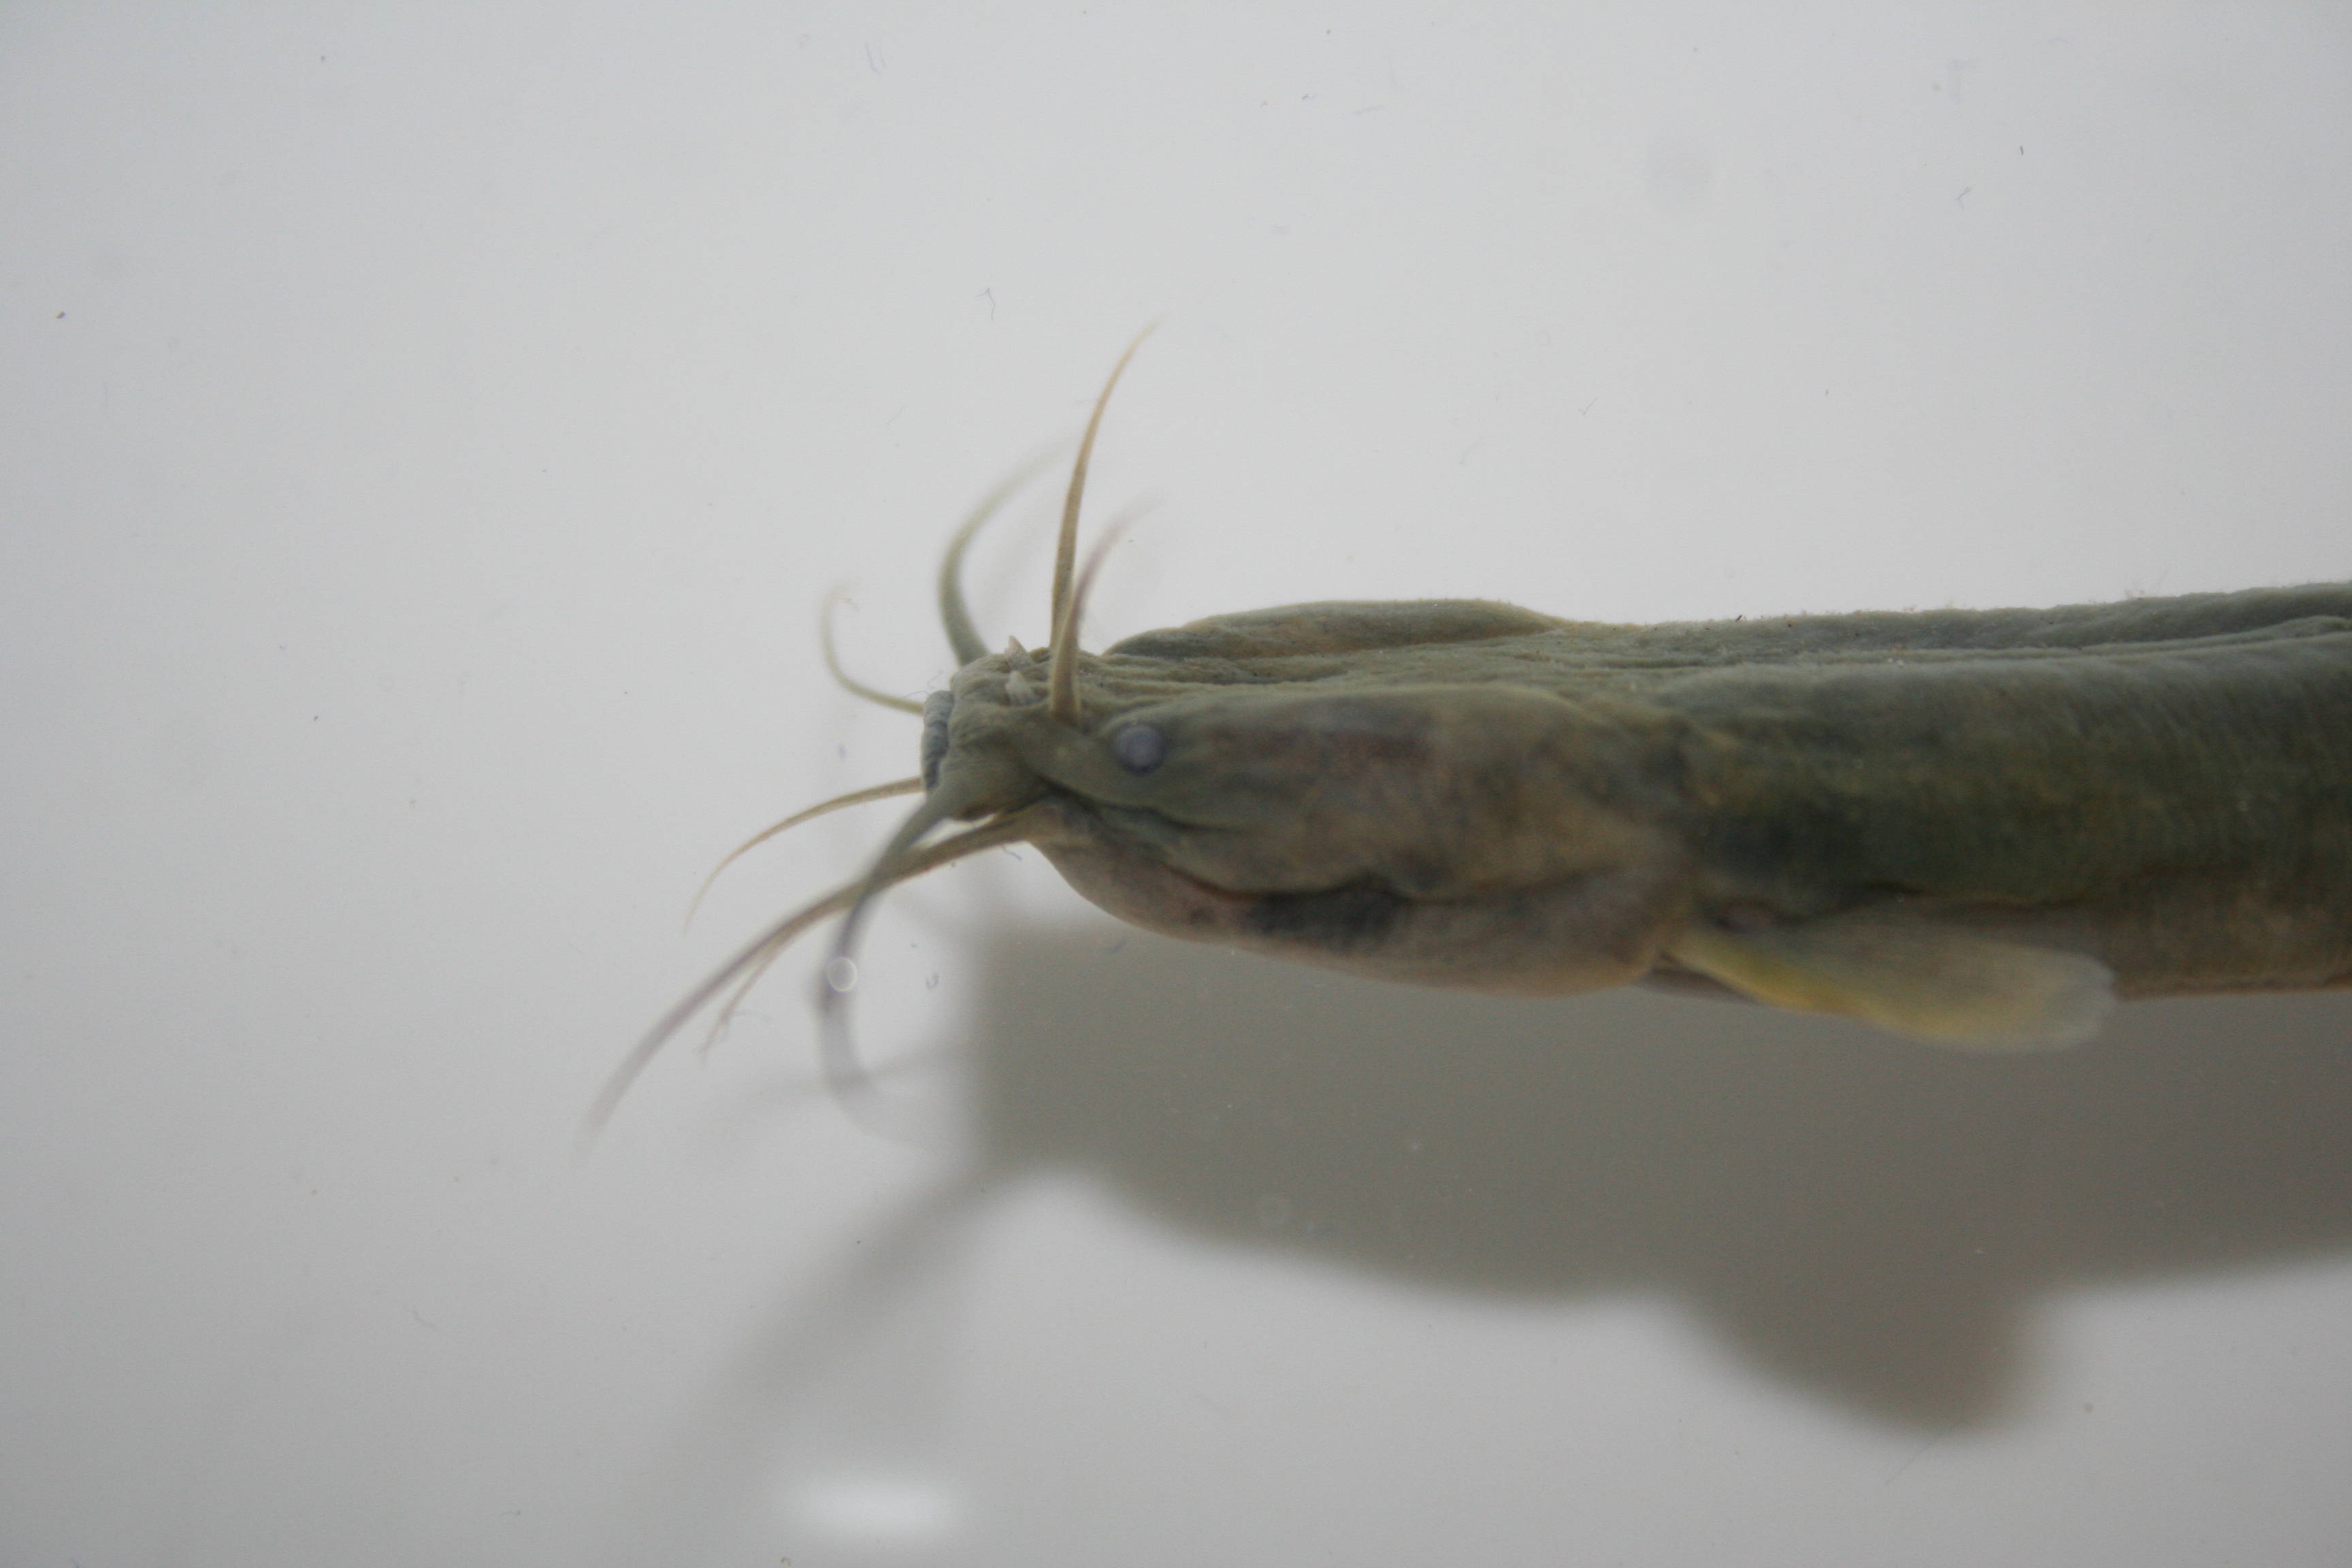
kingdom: Animalia
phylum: Chordata
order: Siluriformes
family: Clariidae
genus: Clarias
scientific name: Clarias theodorae
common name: Snake catfish
